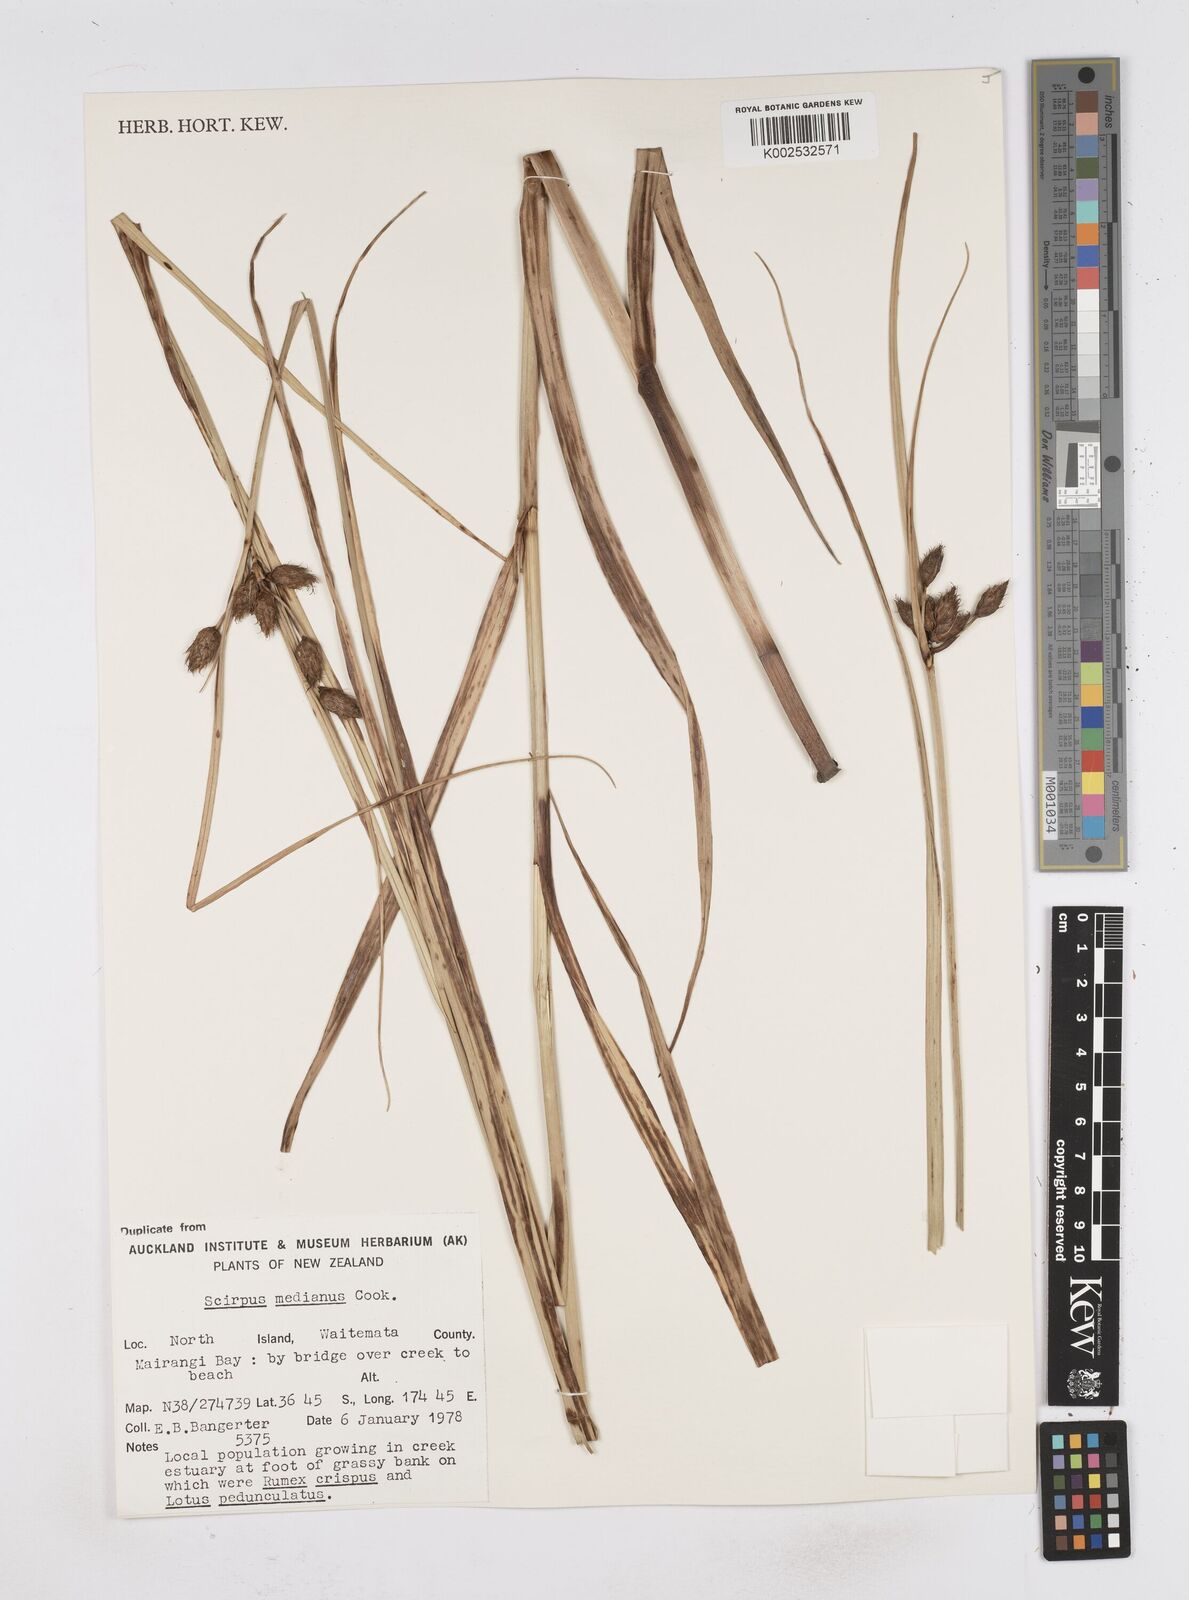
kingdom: Plantae
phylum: Tracheophyta
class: Liliopsida
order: Poales
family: Cyperaceae
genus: Bolboschoenus
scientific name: Bolboschoenus medianus
